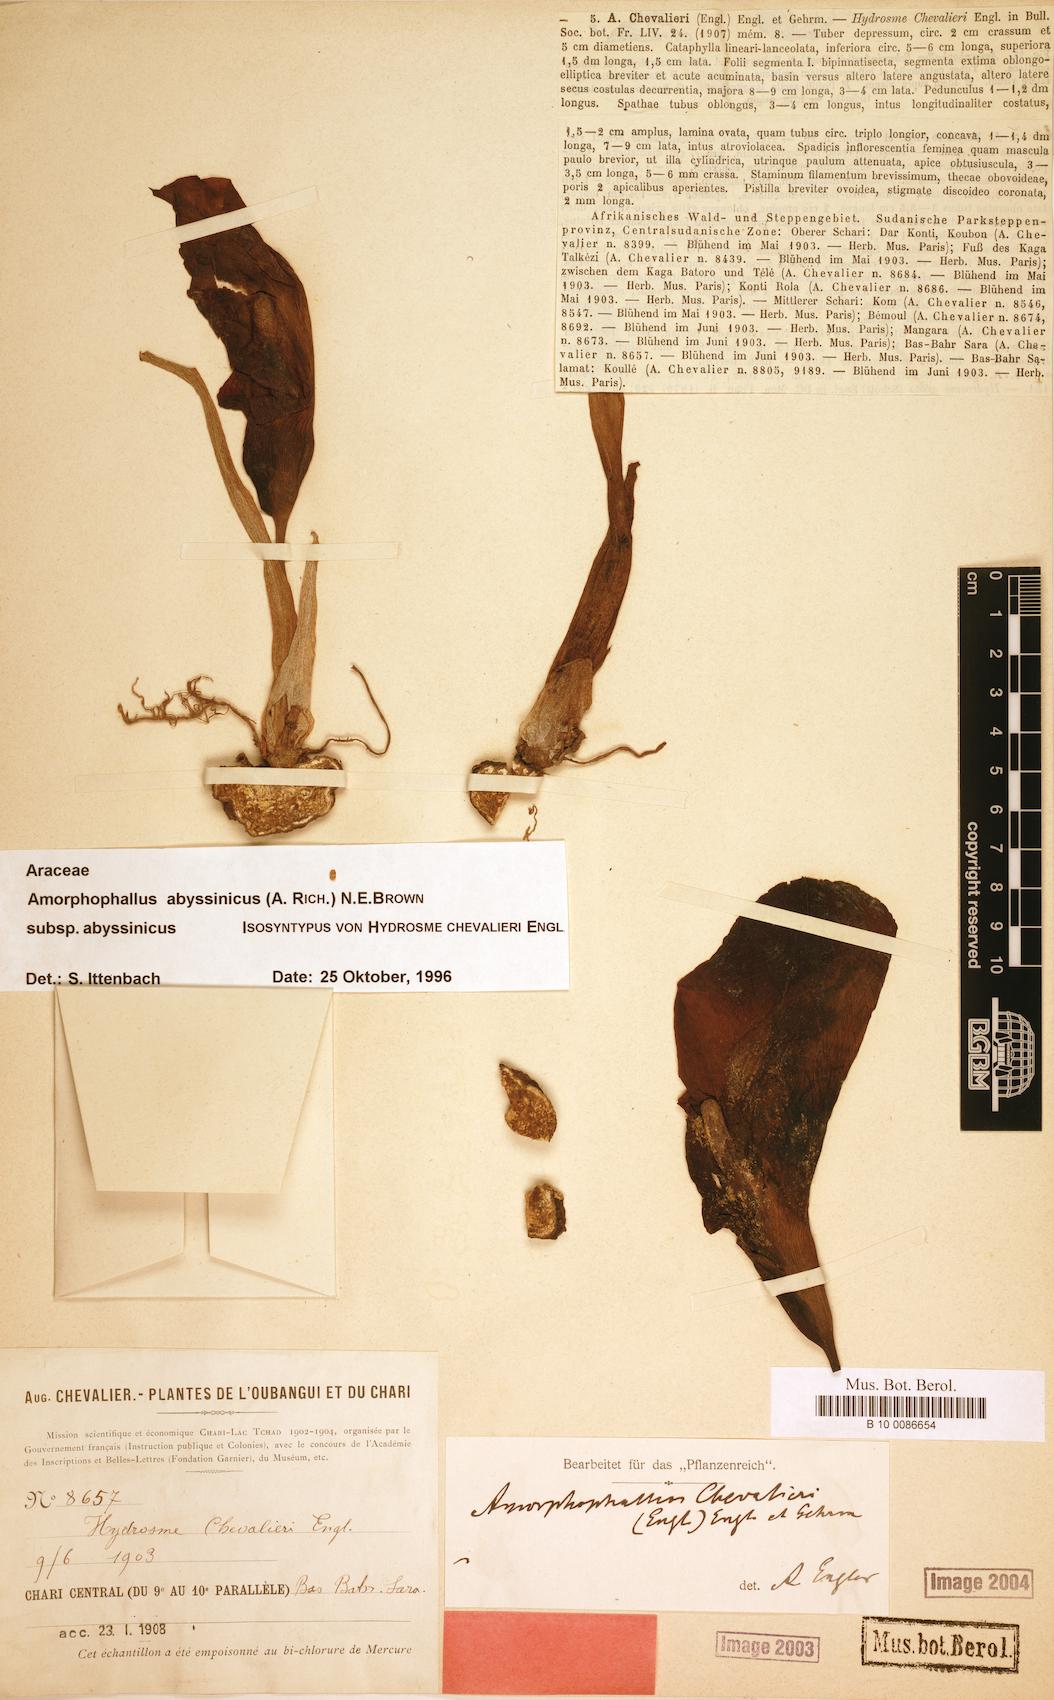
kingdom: Plantae
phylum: Tracheophyta
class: Liliopsida
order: Alismatales
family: Araceae
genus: Amorphophallus
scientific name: Amorphophallus abyssinicus
